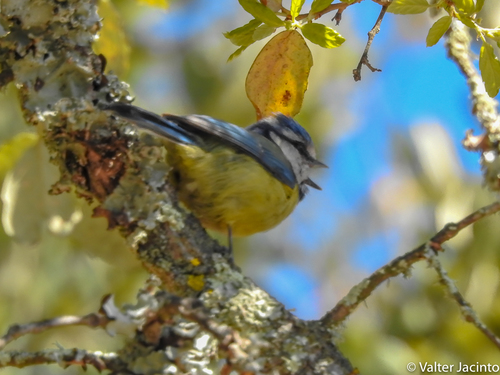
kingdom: Animalia
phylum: Chordata
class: Aves
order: Passeriformes
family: Paridae
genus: Cyanistes
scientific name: Cyanistes caeruleus
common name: Eurasian blue tit
